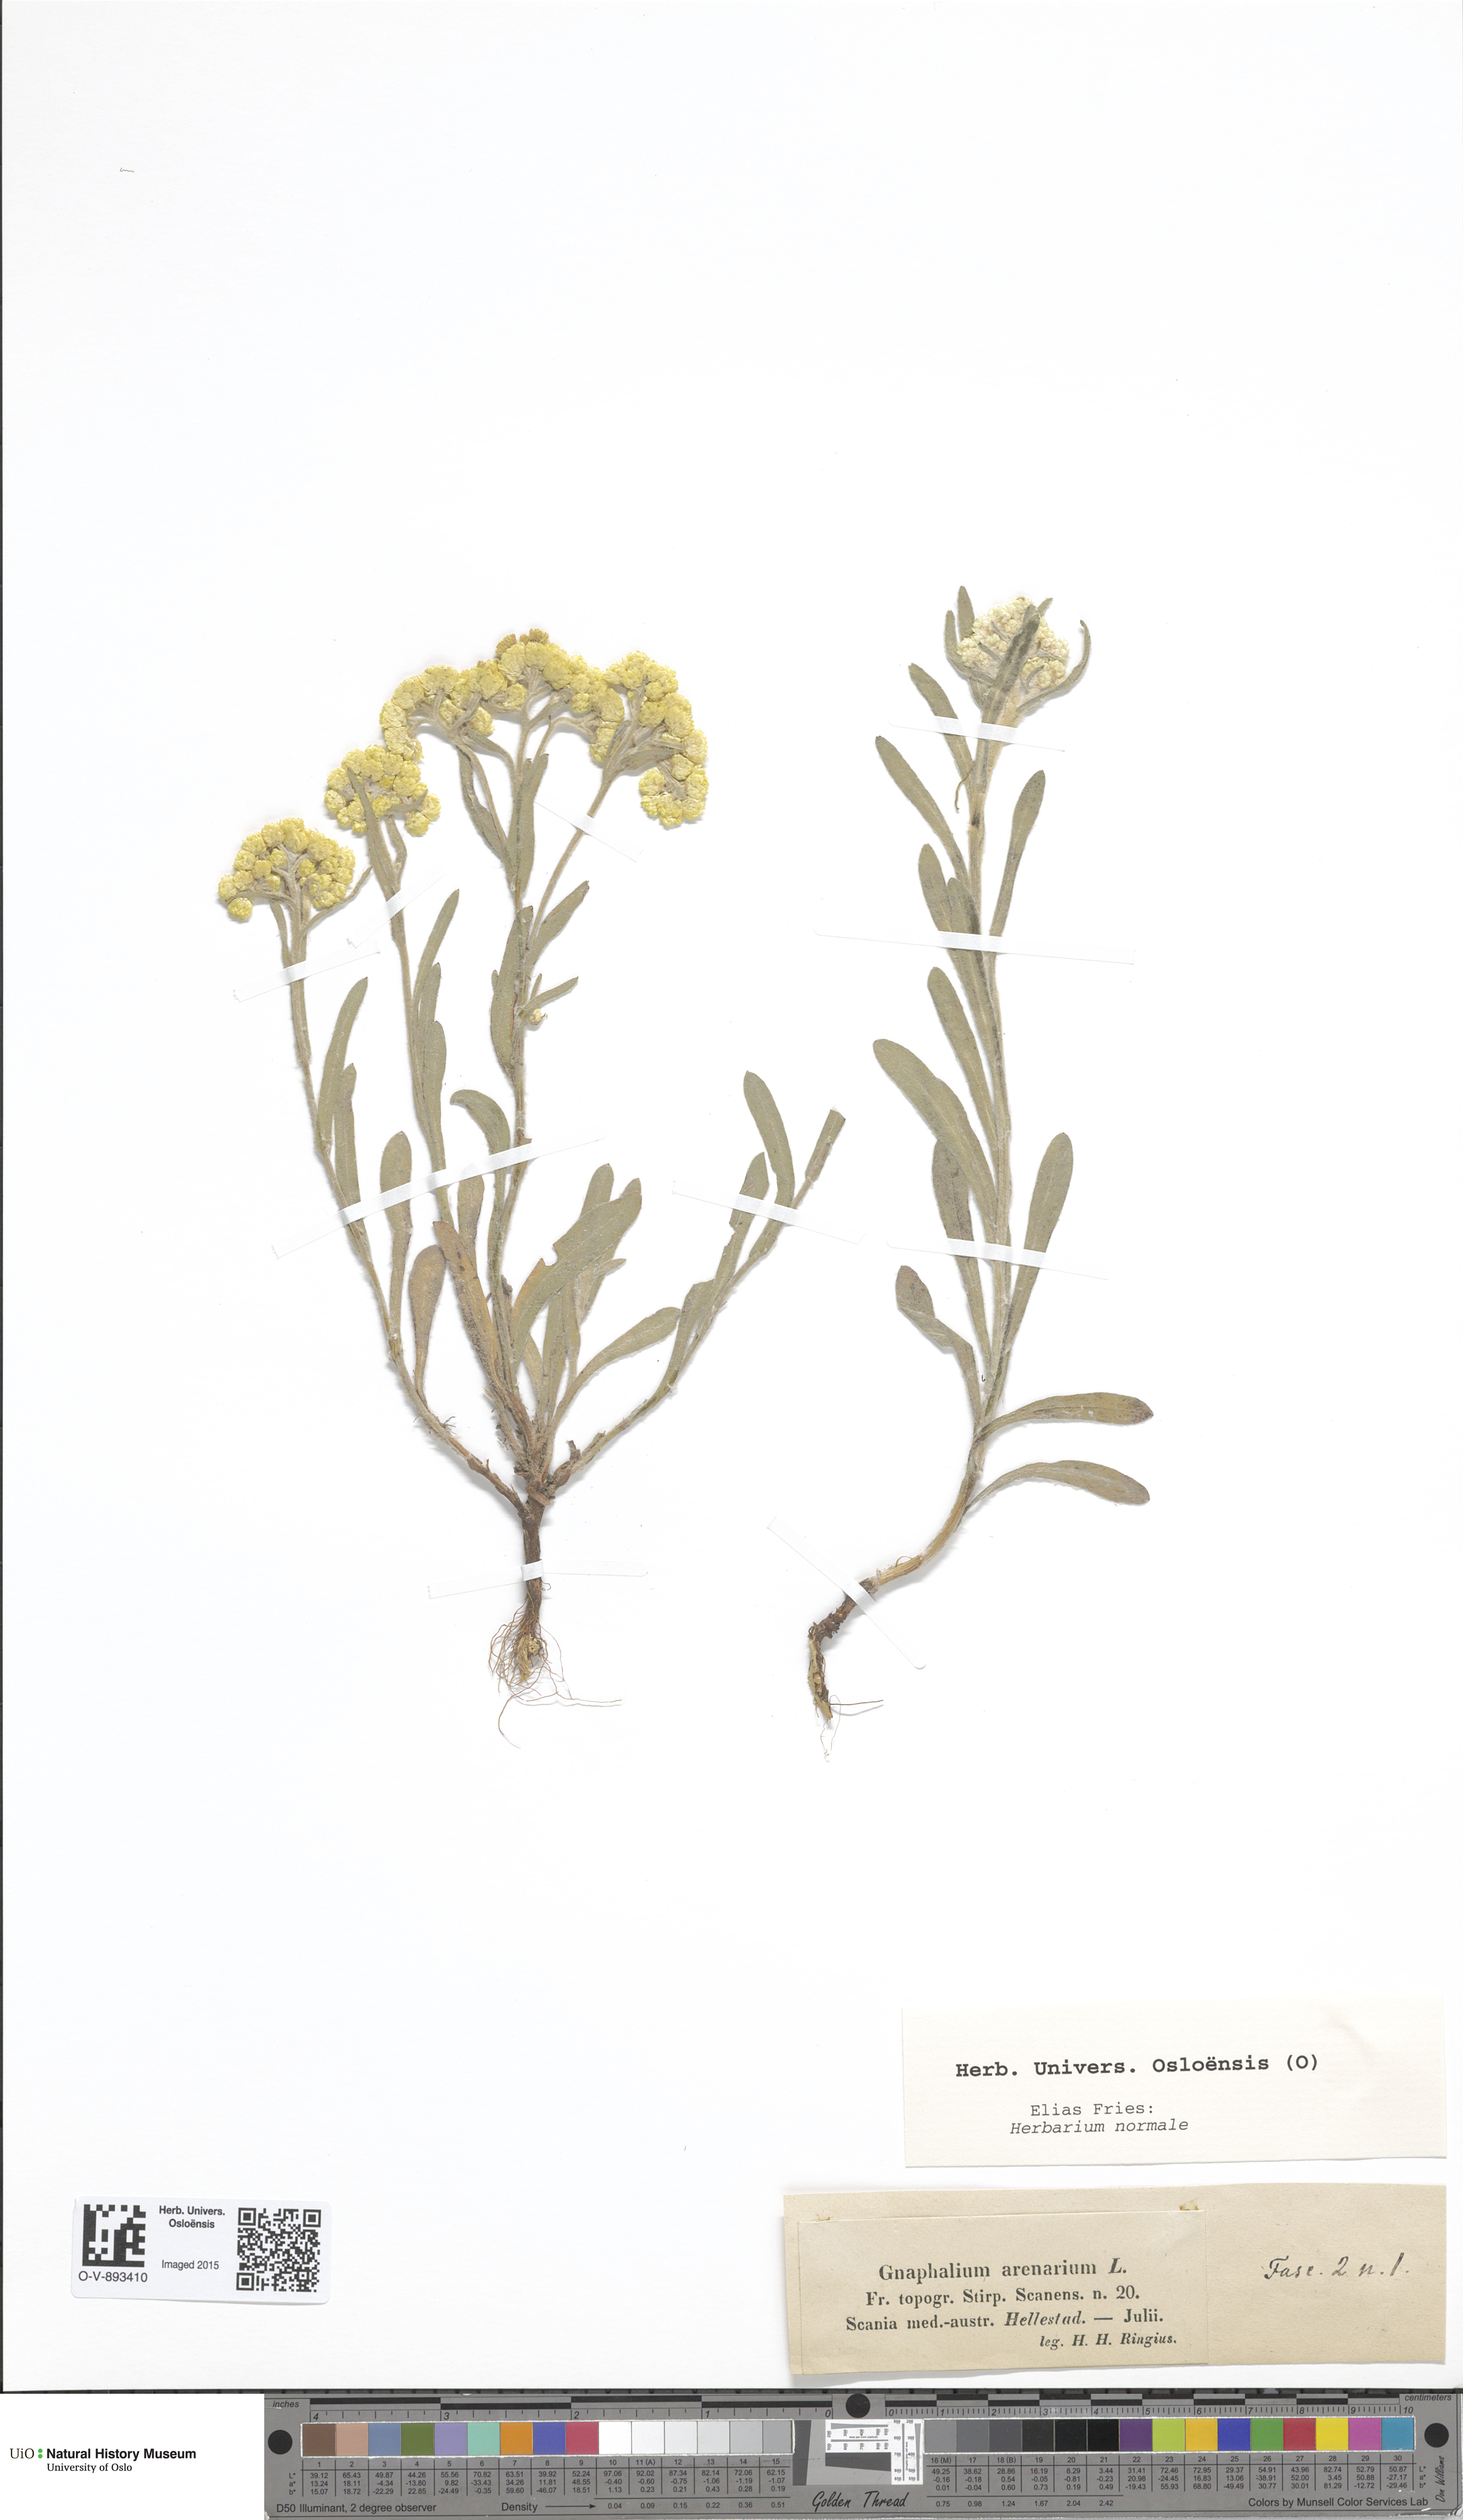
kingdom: Plantae
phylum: Tracheophyta
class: Magnoliopsida
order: Asterales
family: Asteraceae
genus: Helichrysum
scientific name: Helichrysum arenarium
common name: Strawflower
